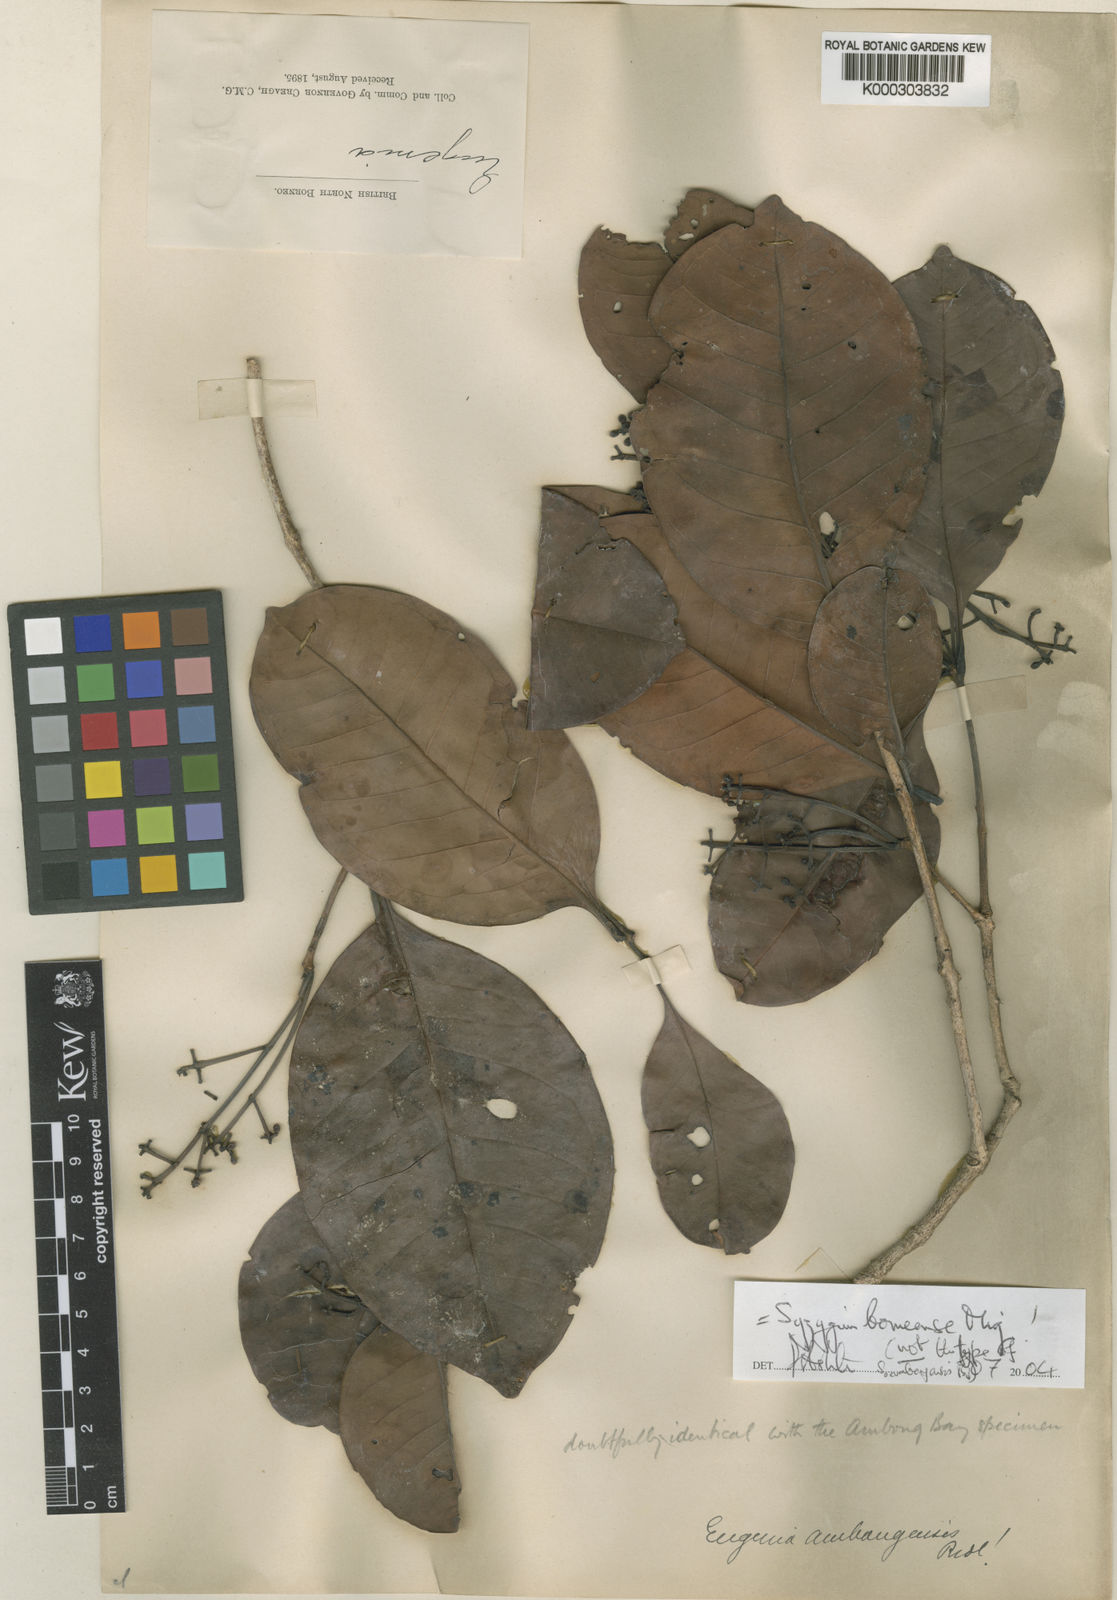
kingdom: Plantae
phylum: Tracheophyta
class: Magnoliopsida
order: Myrtales
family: Myrtaceae
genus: Syzygium
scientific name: Syzygium borneense
